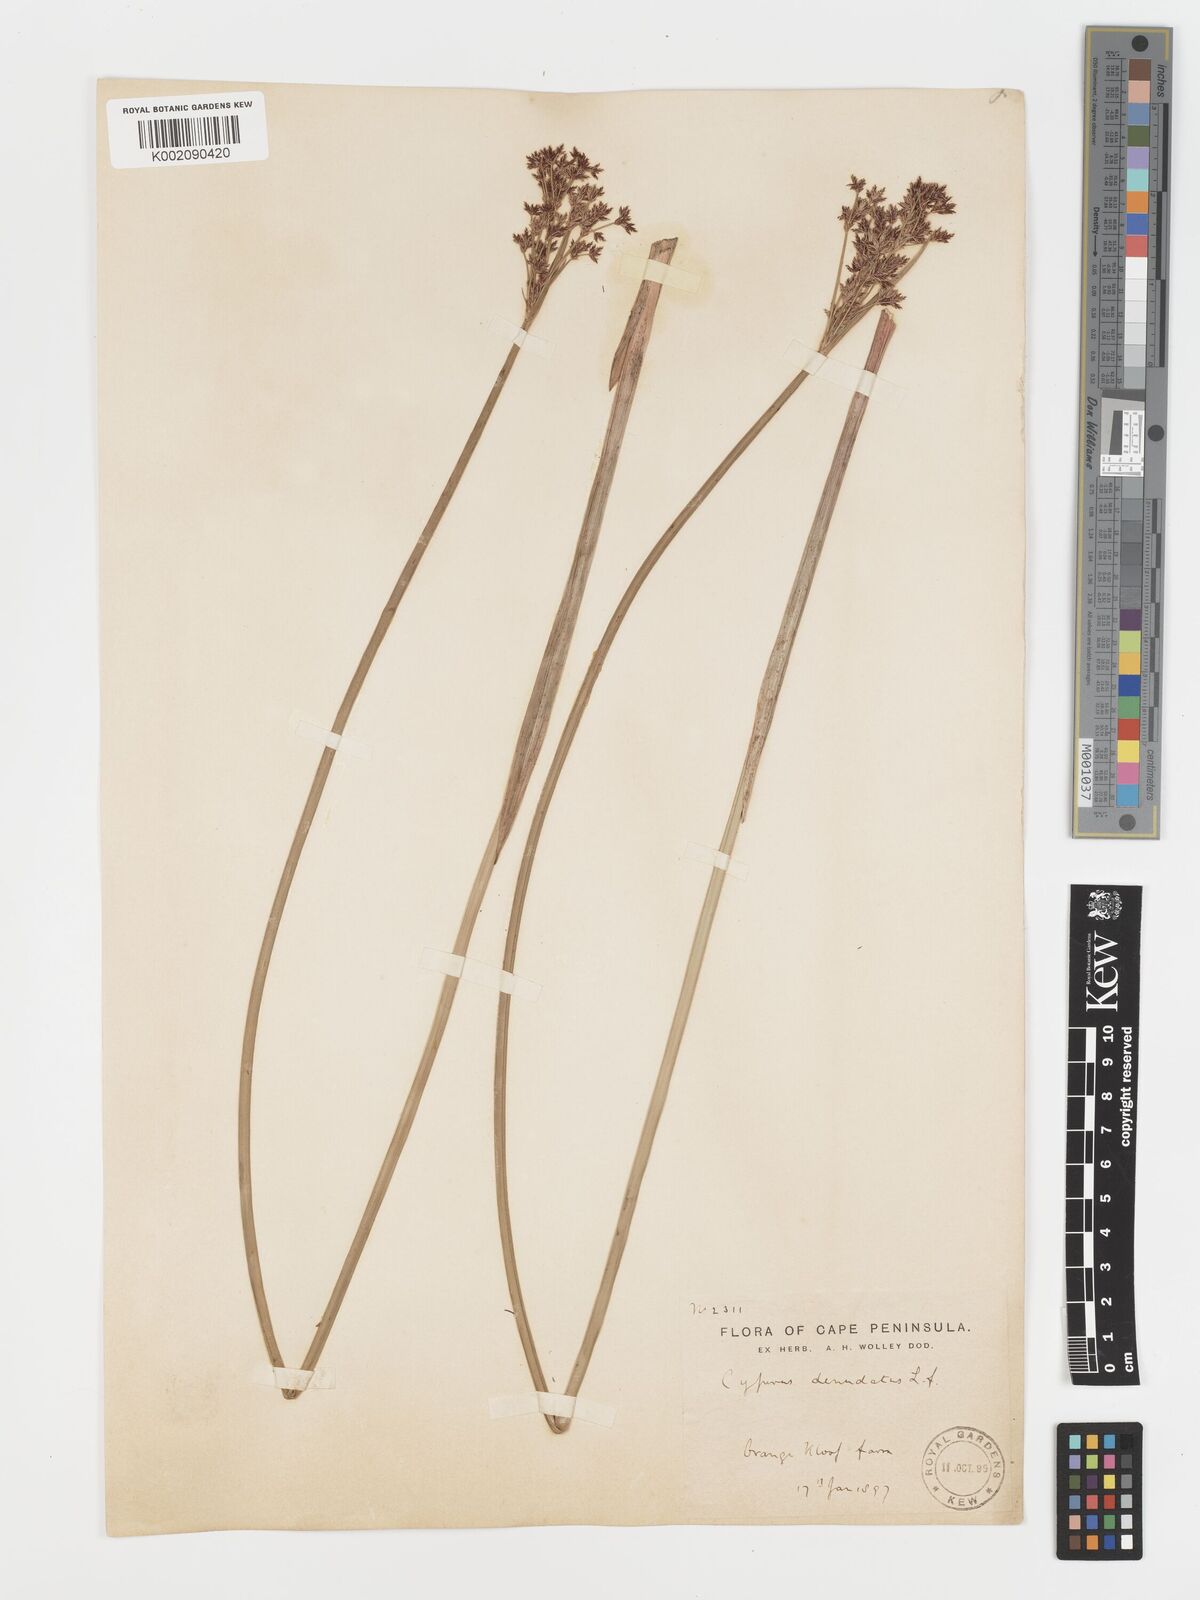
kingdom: Plantae
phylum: Tracheophyta
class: Liliopsida
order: Poales
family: Cyperaceae
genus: Cyperus
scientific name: Cyperus denudatus
